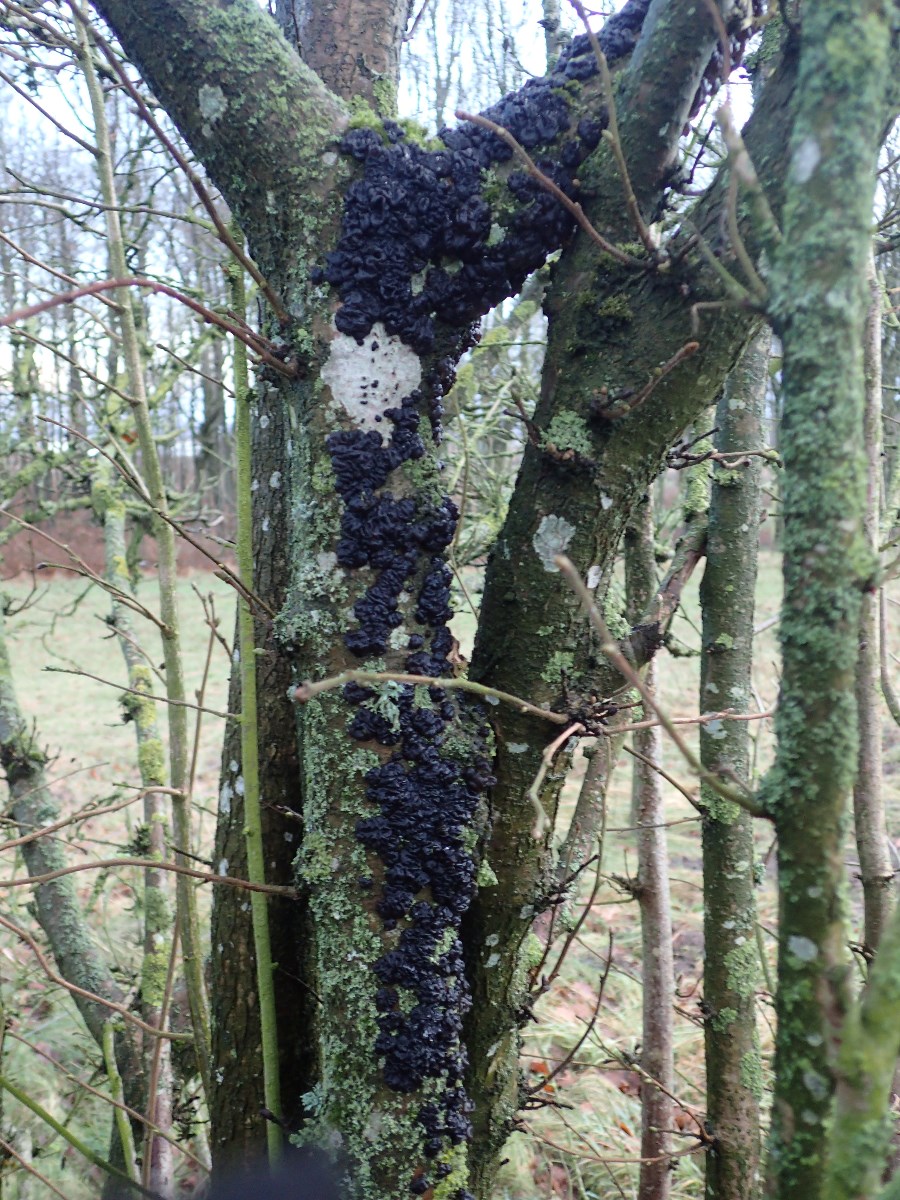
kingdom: Fungi
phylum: Basidiomycota
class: Agaricomycetes
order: Auriculariales
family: Auriculariaceae
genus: Exidia
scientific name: Exidia nigricans
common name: almindelig bævretop
